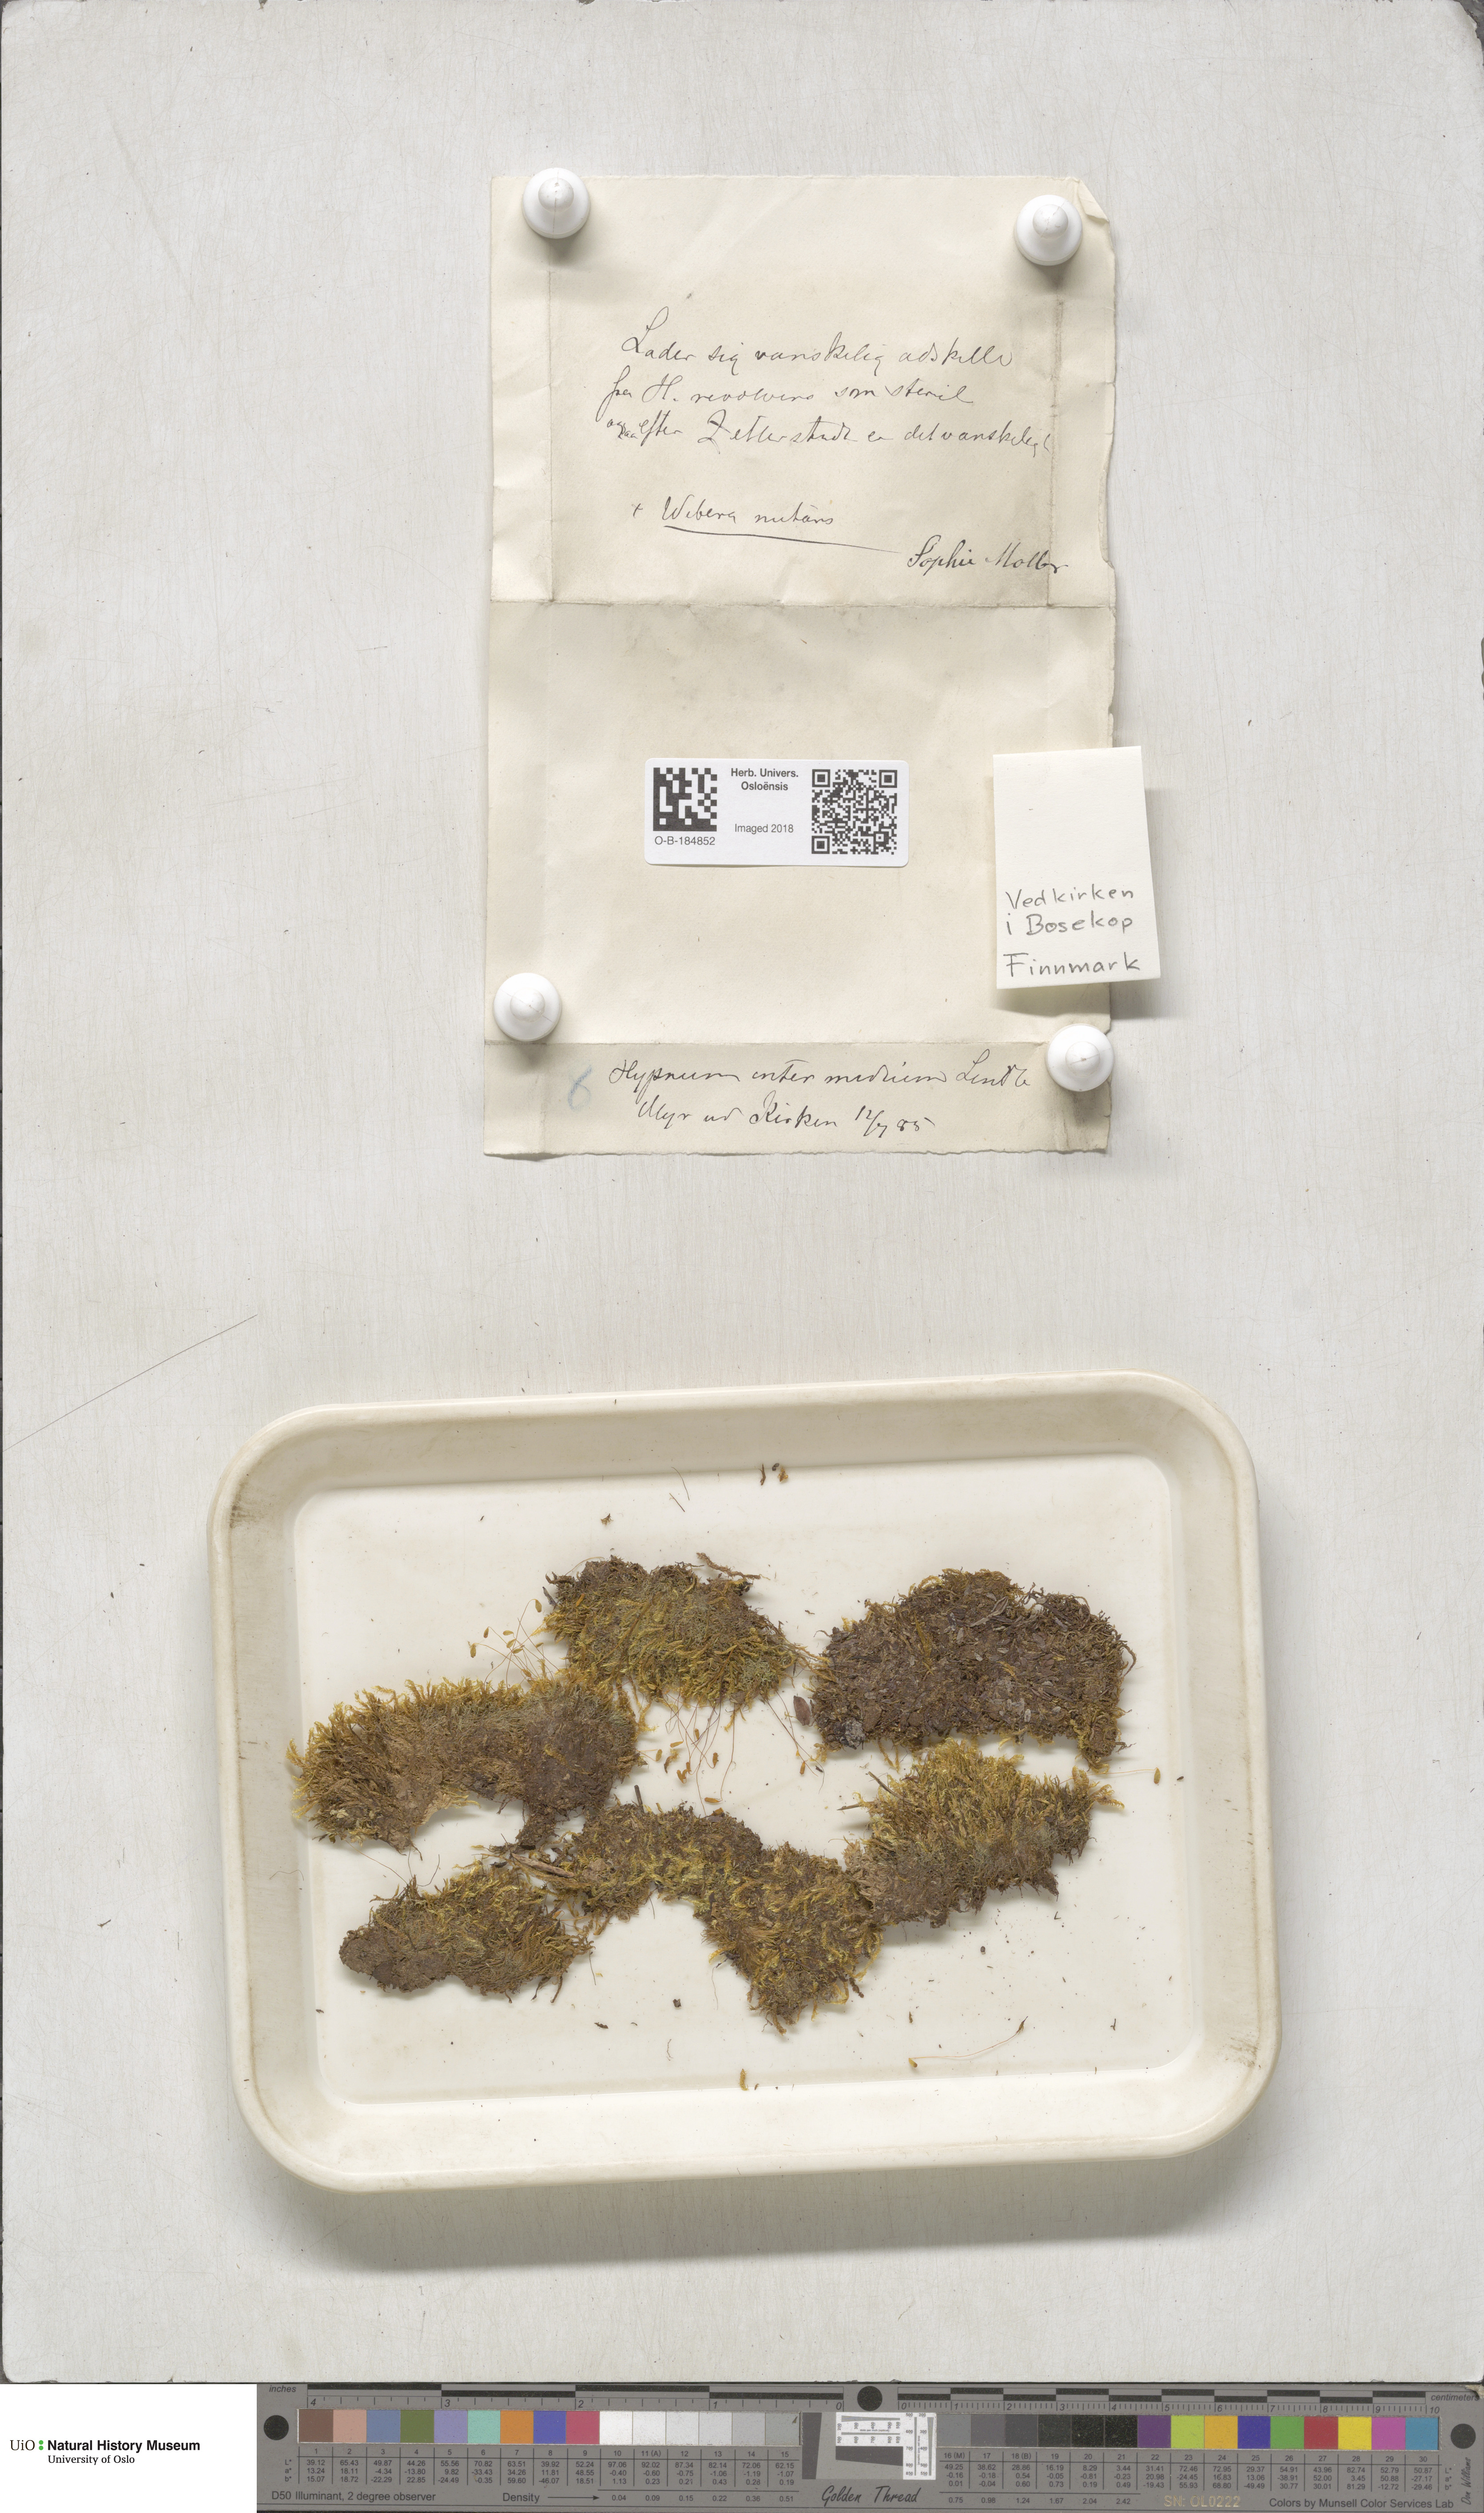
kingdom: Plantae
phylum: Bryophyta
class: Bryopsida
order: Hypnales
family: Scorpidiaceae
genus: Scorpidium
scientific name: Scorpidium cossonii
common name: Cosson's hook moss
